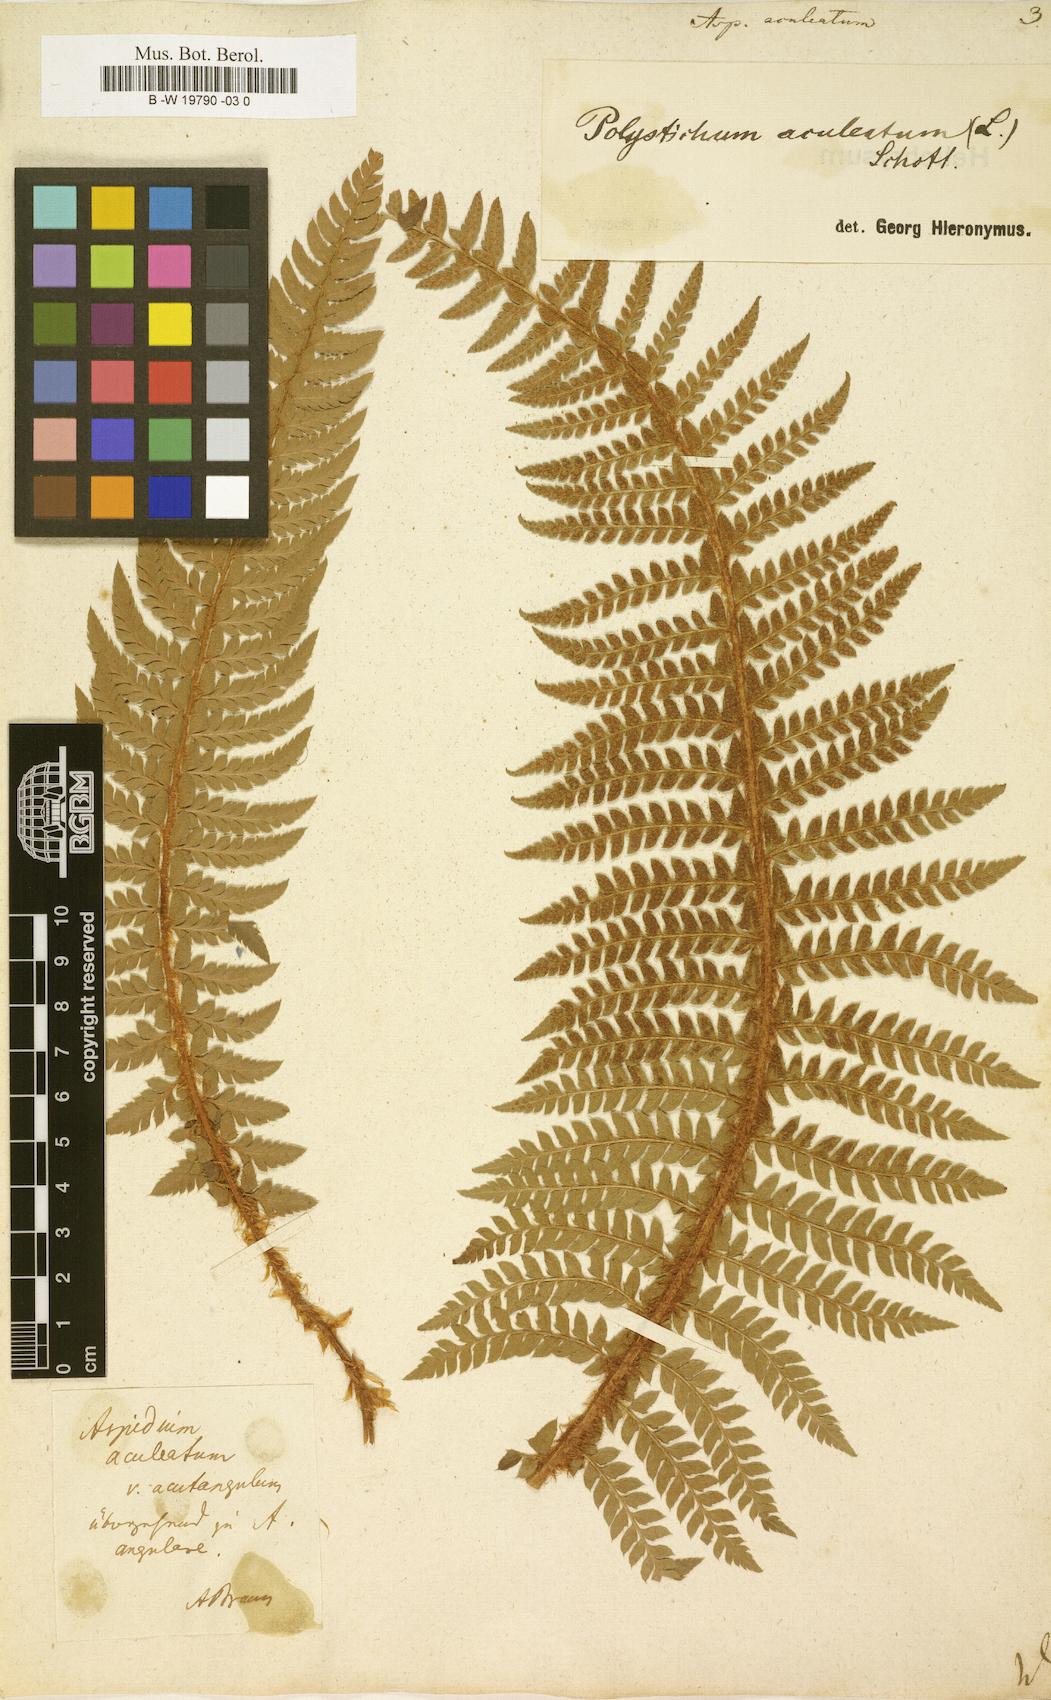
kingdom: Plantae
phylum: Tracheophyta
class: Polypodiopsida
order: Polypodiales
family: Dryopteridaceae
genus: Polystichum
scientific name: Polystichum aculeatum
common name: Hard shield-fern
